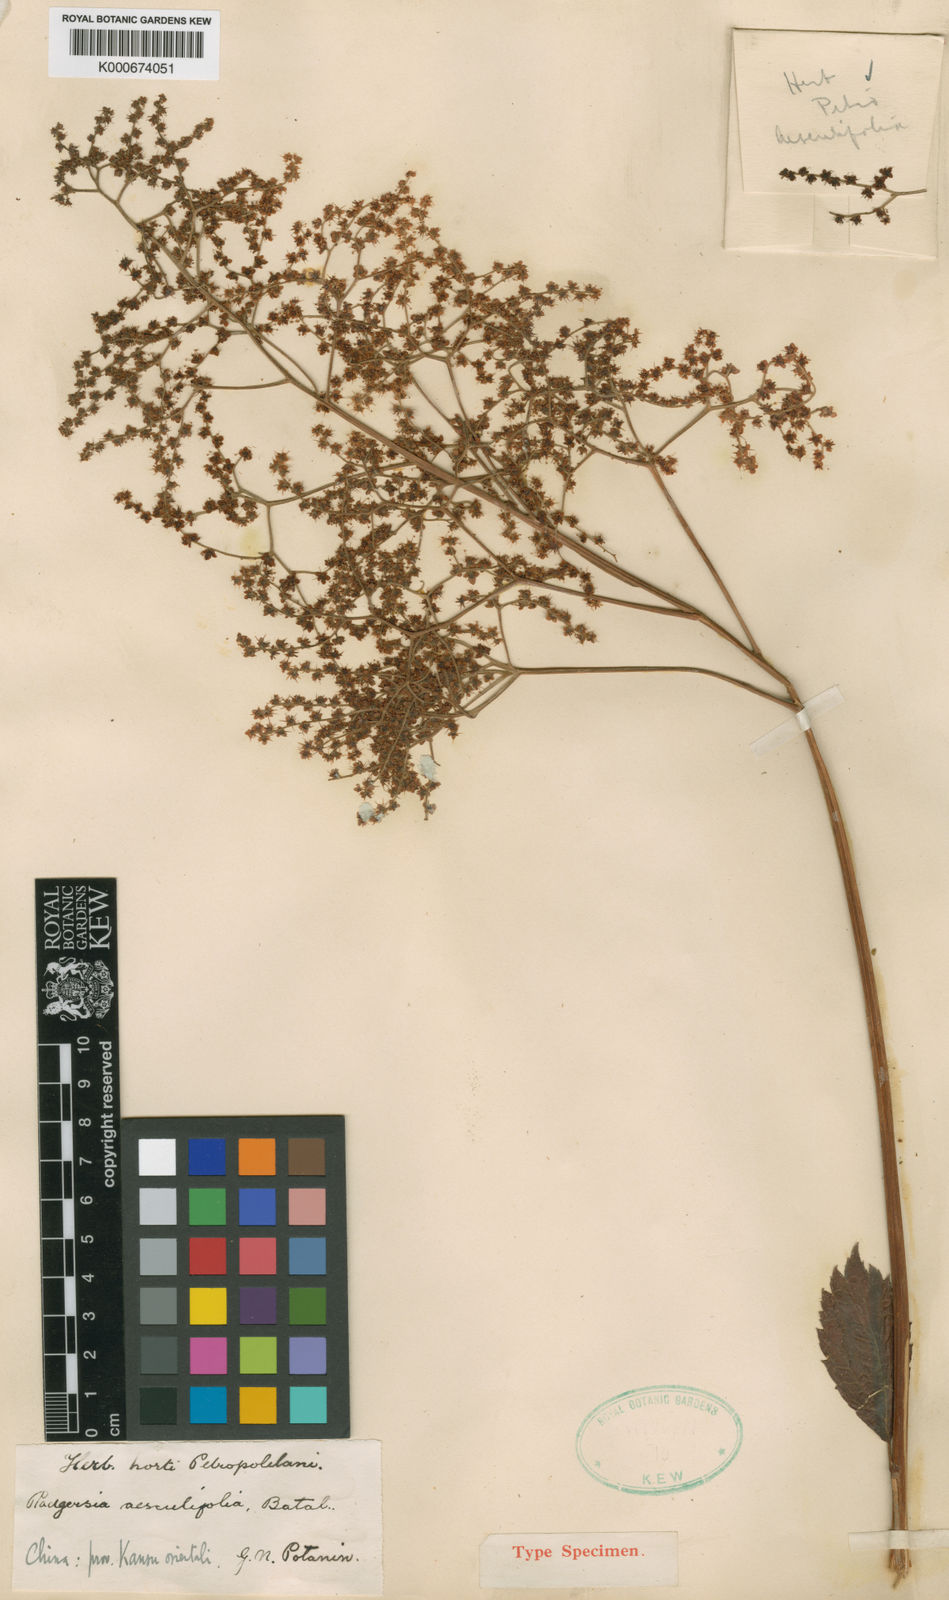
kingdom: Plantae
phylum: Tracheophyta
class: Magnoliopsida
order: Saxifragales
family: Saxifragaceae
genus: Rodgersia
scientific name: Rodgersia aesculifolia
